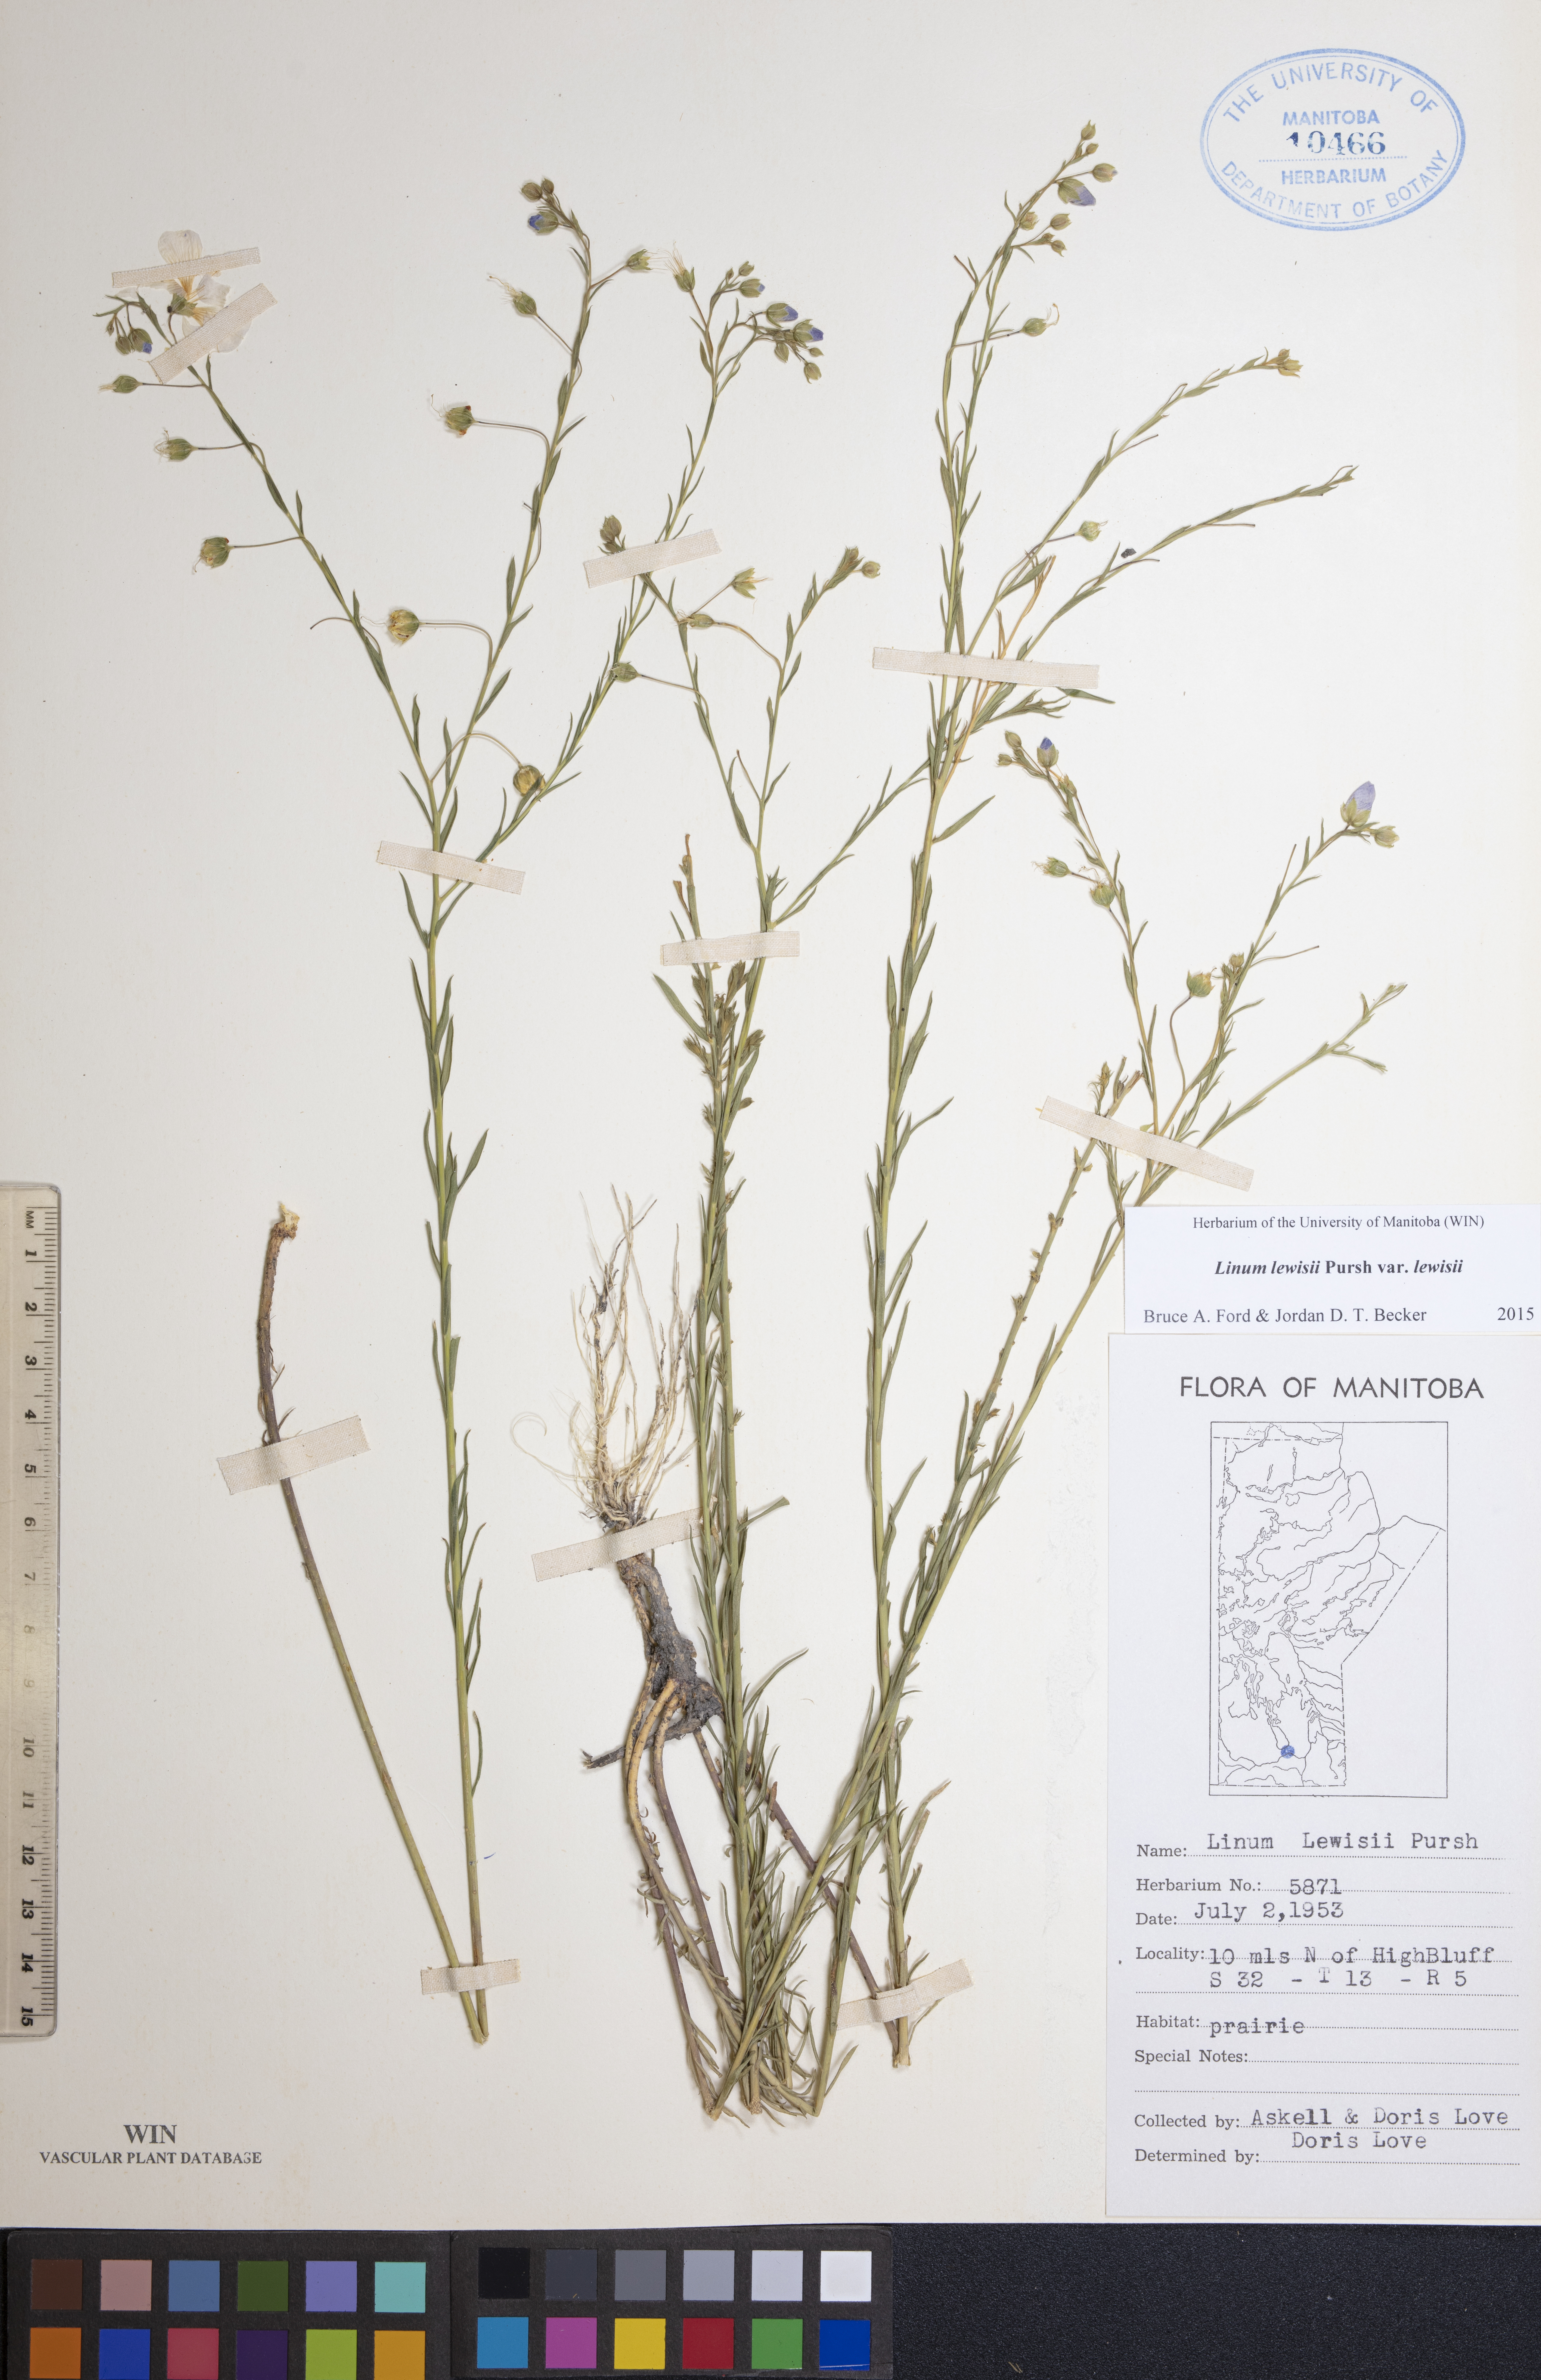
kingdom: Plantae
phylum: Tracheophyta
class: Magnoliopsida
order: Malpighiales
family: Linaceae
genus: Linum
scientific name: Linum lewisii
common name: Prairie flax
